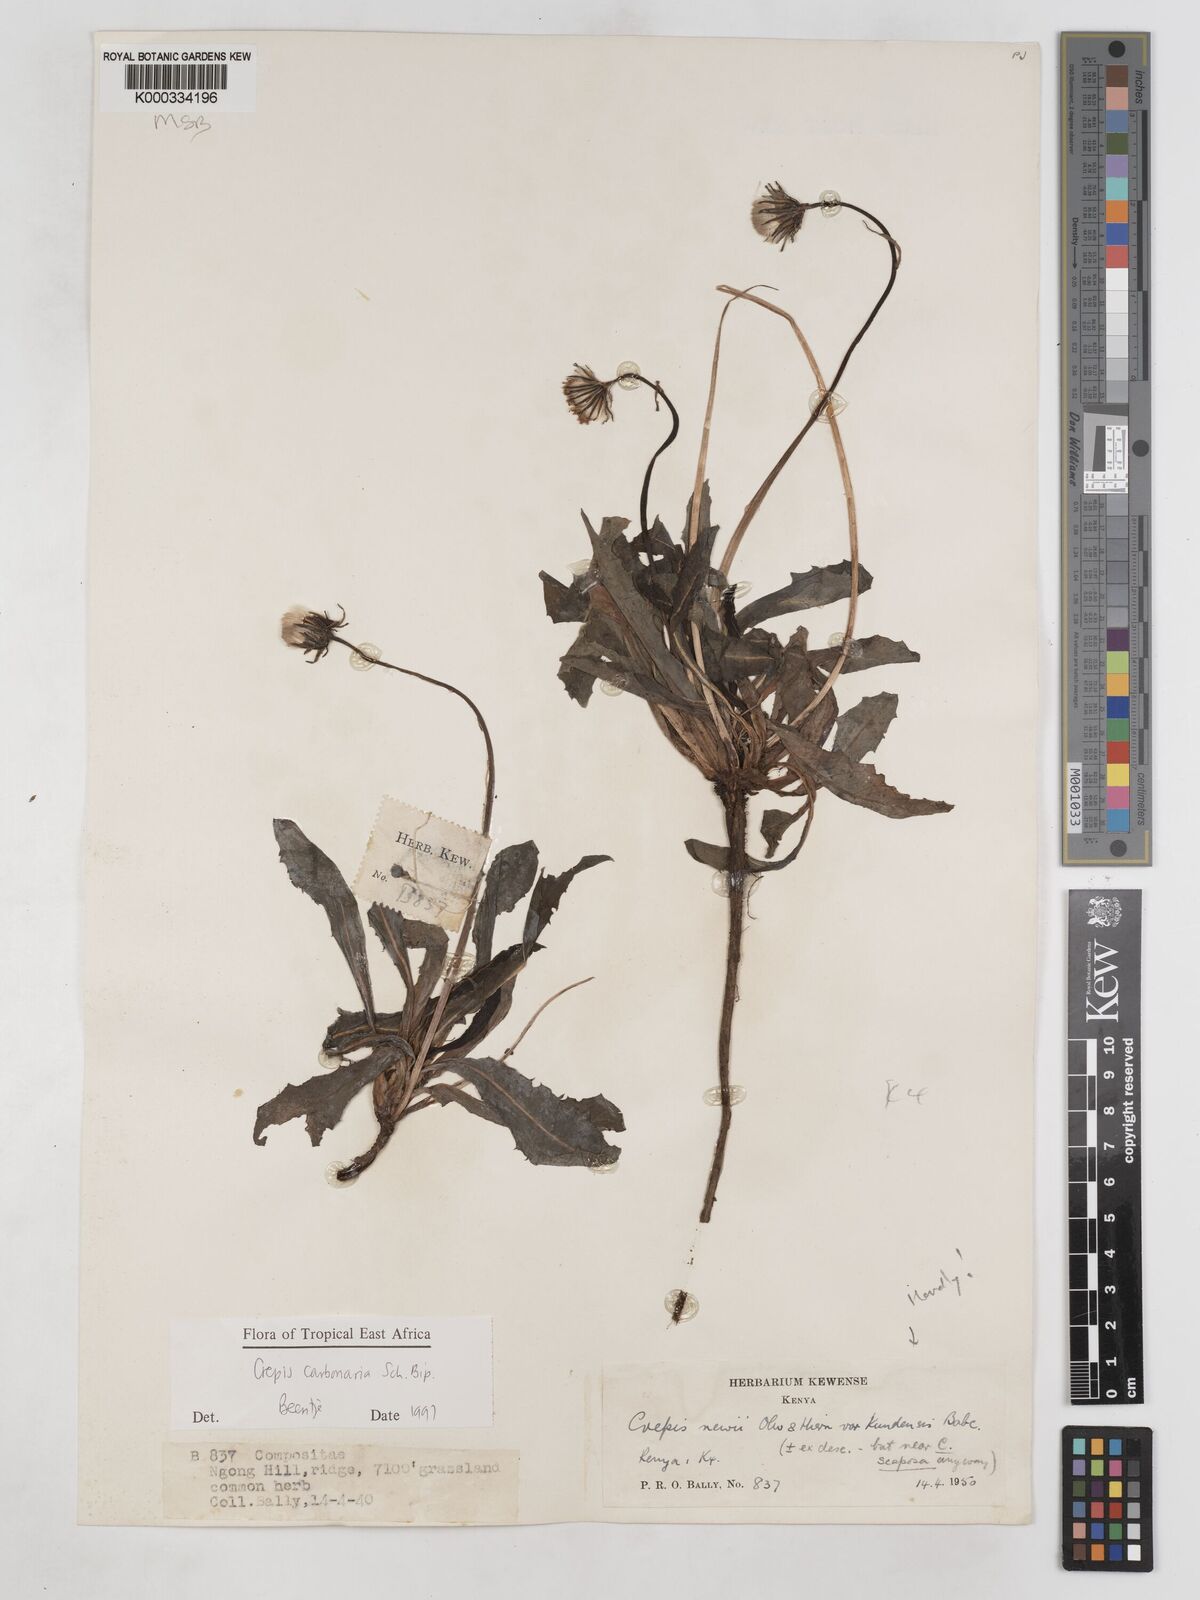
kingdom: Plantae
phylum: Tracheophyta
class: Magnoliopsida
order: Asterales
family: Asteraceae
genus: Crepis
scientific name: Crepis carbonaria
